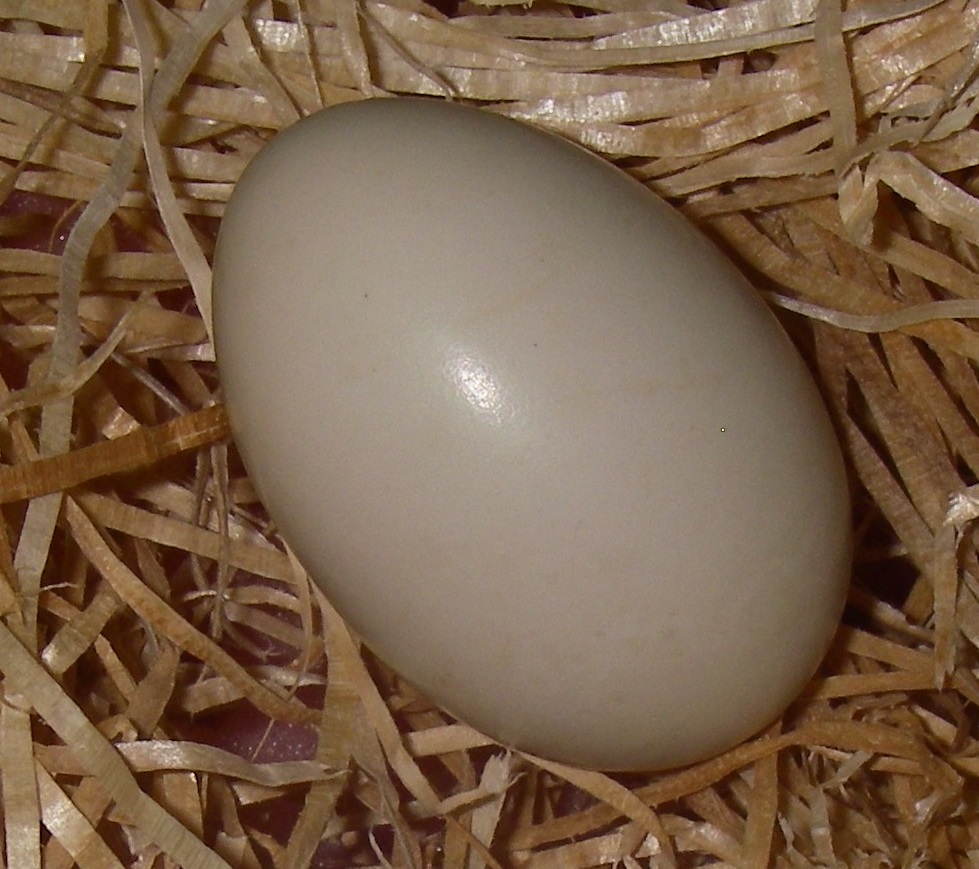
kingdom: Animalia
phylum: Chordata
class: Aves
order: Anseriformes
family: Anatidae
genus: Spatula
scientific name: Spatula clypeata
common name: Northern shoveler
